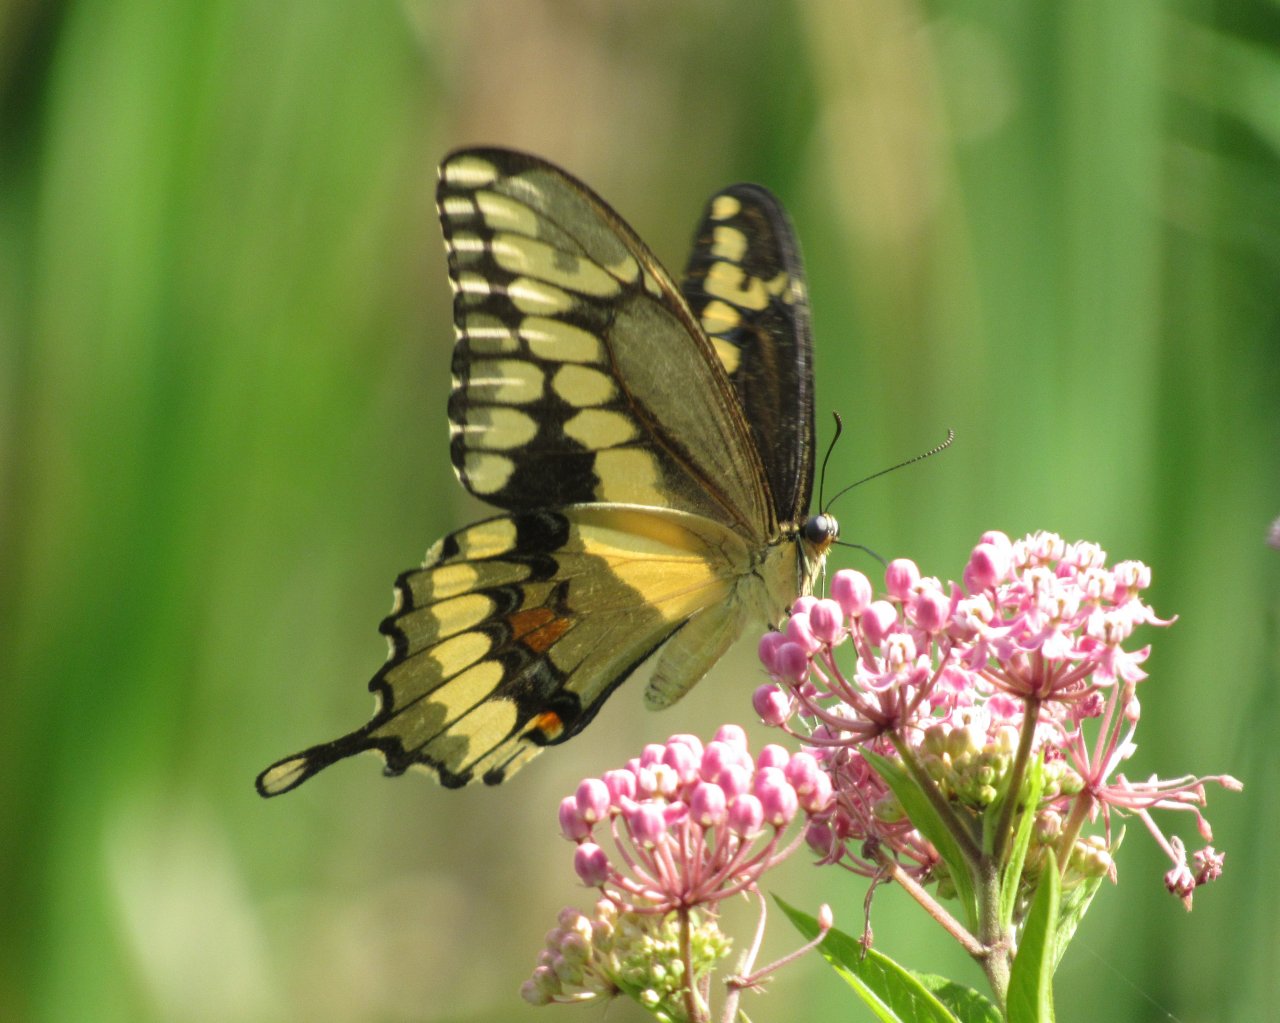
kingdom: Animalia
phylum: Arthropoda
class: Insecta
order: Lepidoptera
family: Papilionidae
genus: Papilio
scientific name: Papilio cresphontes
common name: Eastern Giant Swallowtail
